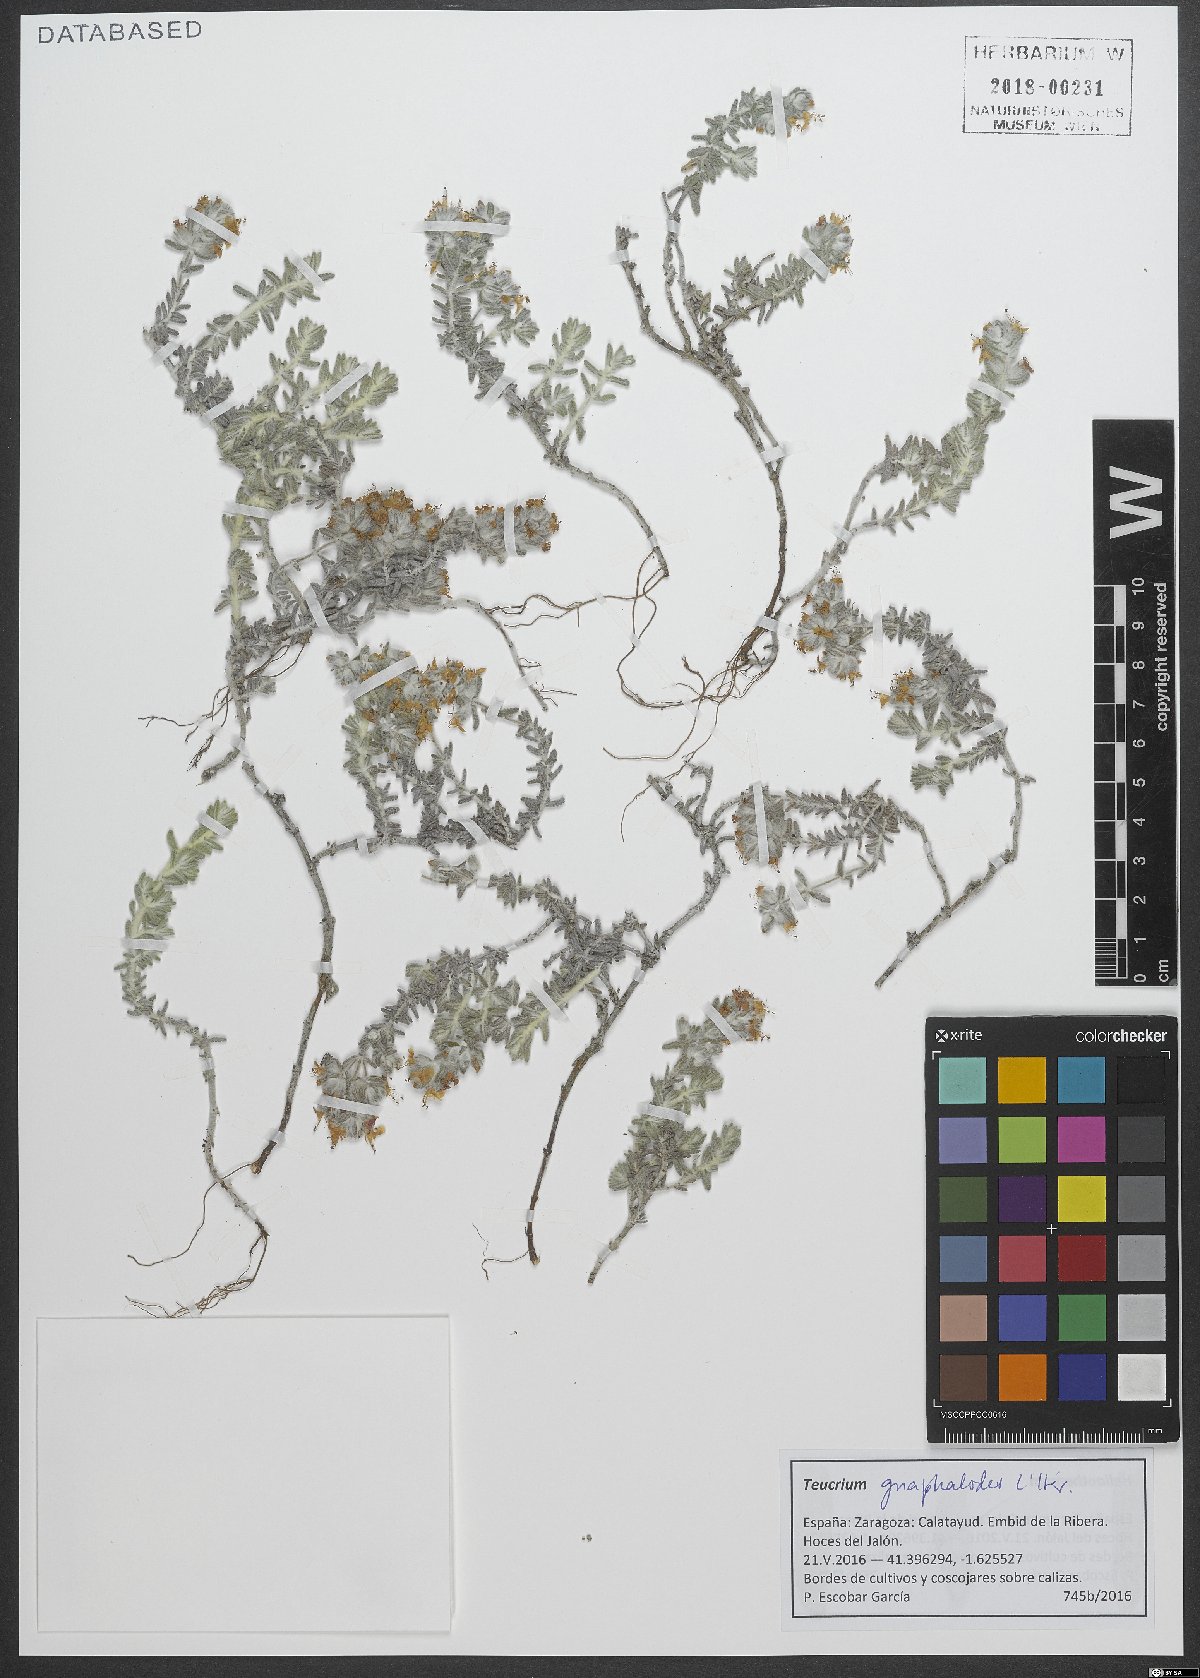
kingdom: Plantae
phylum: Tracheophyta
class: Magnoliopsida
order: Lamiales
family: Lamiaceae
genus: Teucrium
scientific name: Teucrium gnaphalodes
